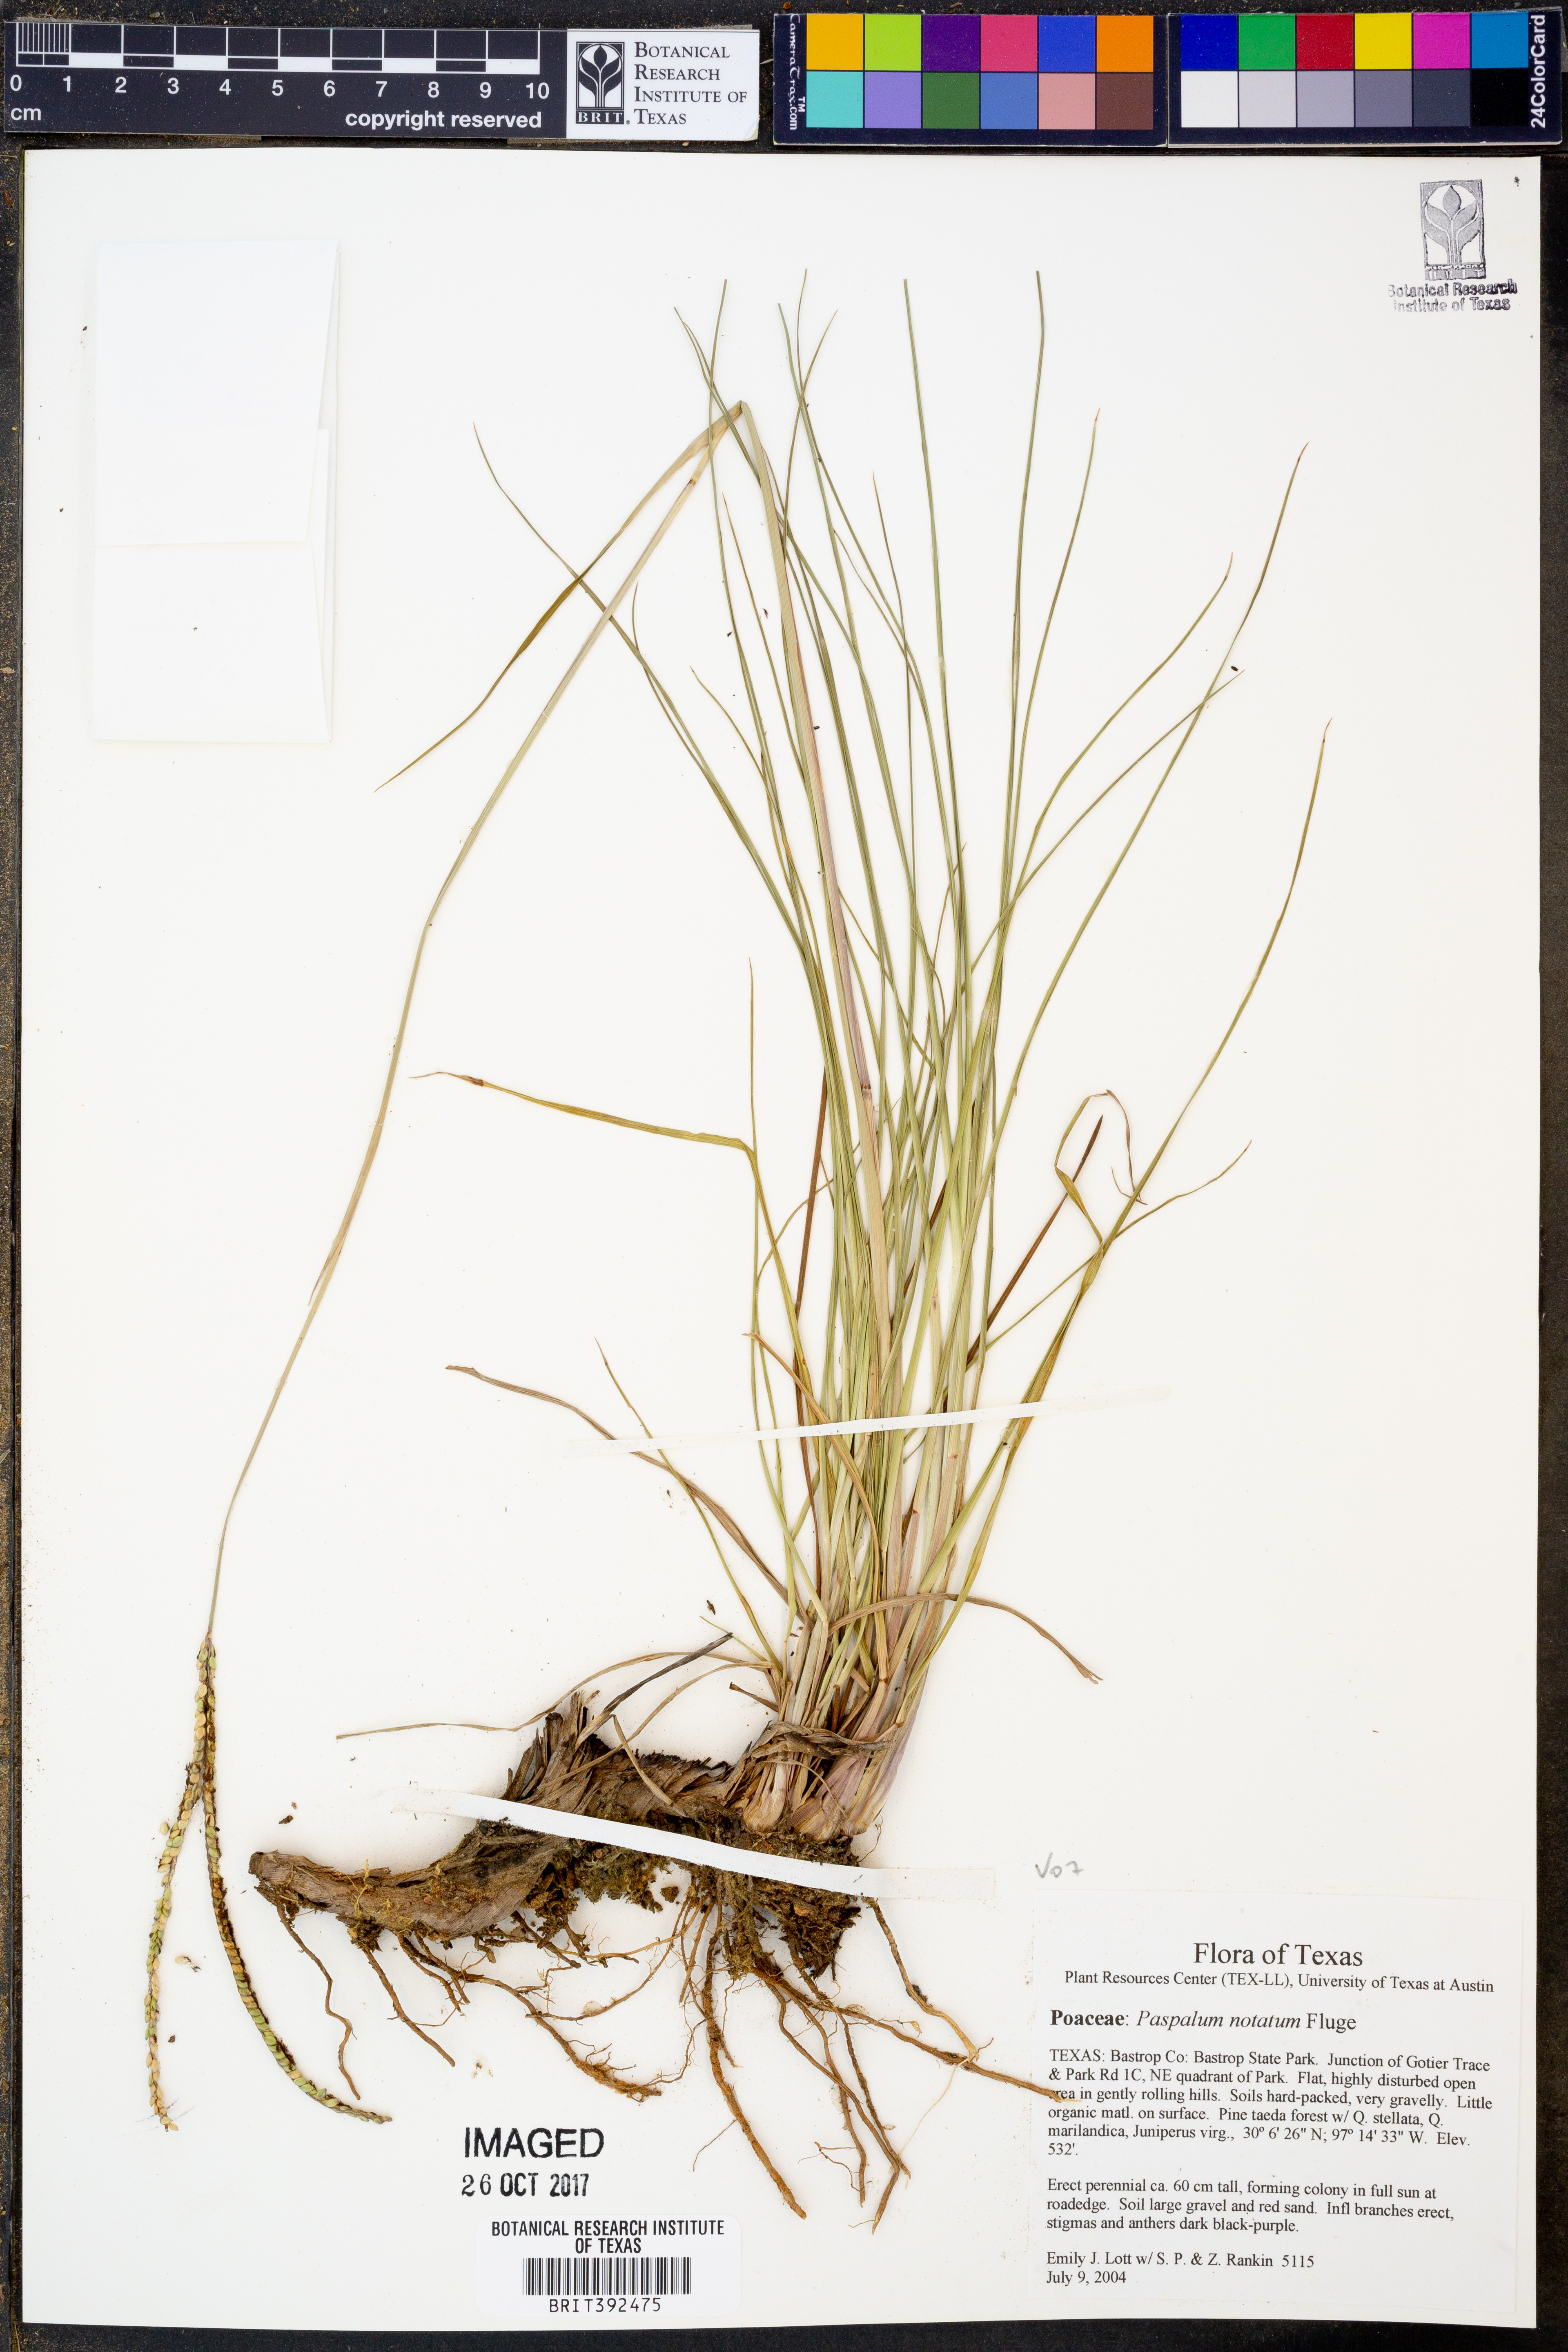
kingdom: Plantae
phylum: Tracheophyta
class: Liliopsida
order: Poales
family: Poaceae
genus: Paspalum
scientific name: Paspalum notatum
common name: Bahiagrass
